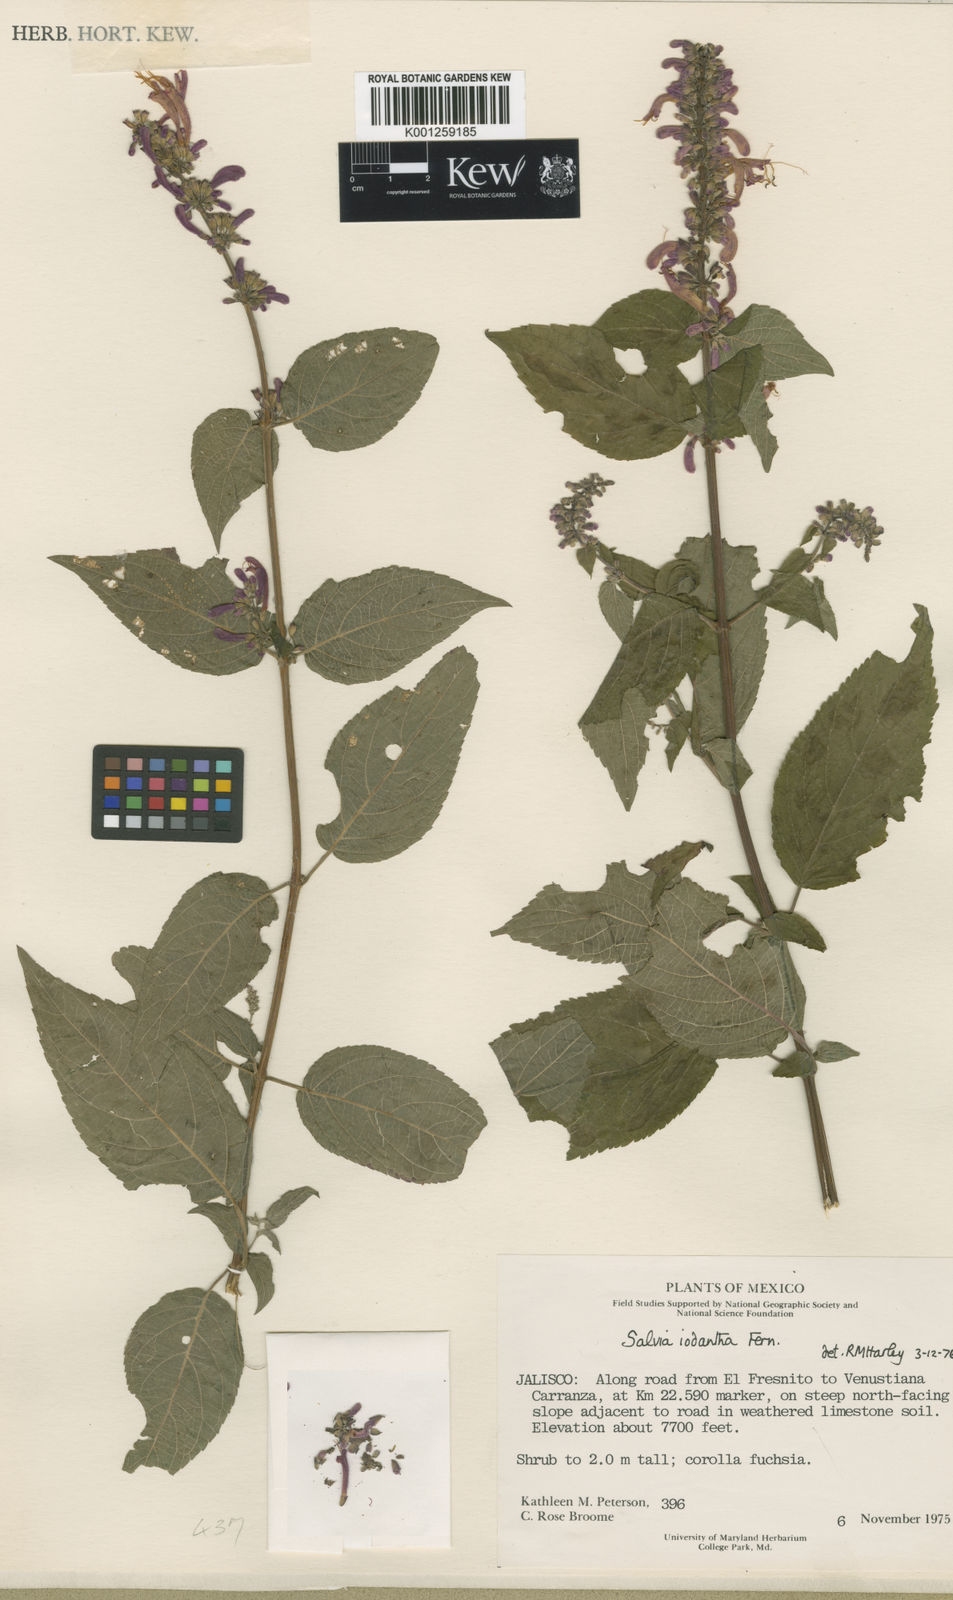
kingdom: Plantae
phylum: Tracheophyta
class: Magnoliopsida
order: Lamiales
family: Lamiaceae
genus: Salvia
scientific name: Salvia iodantha
